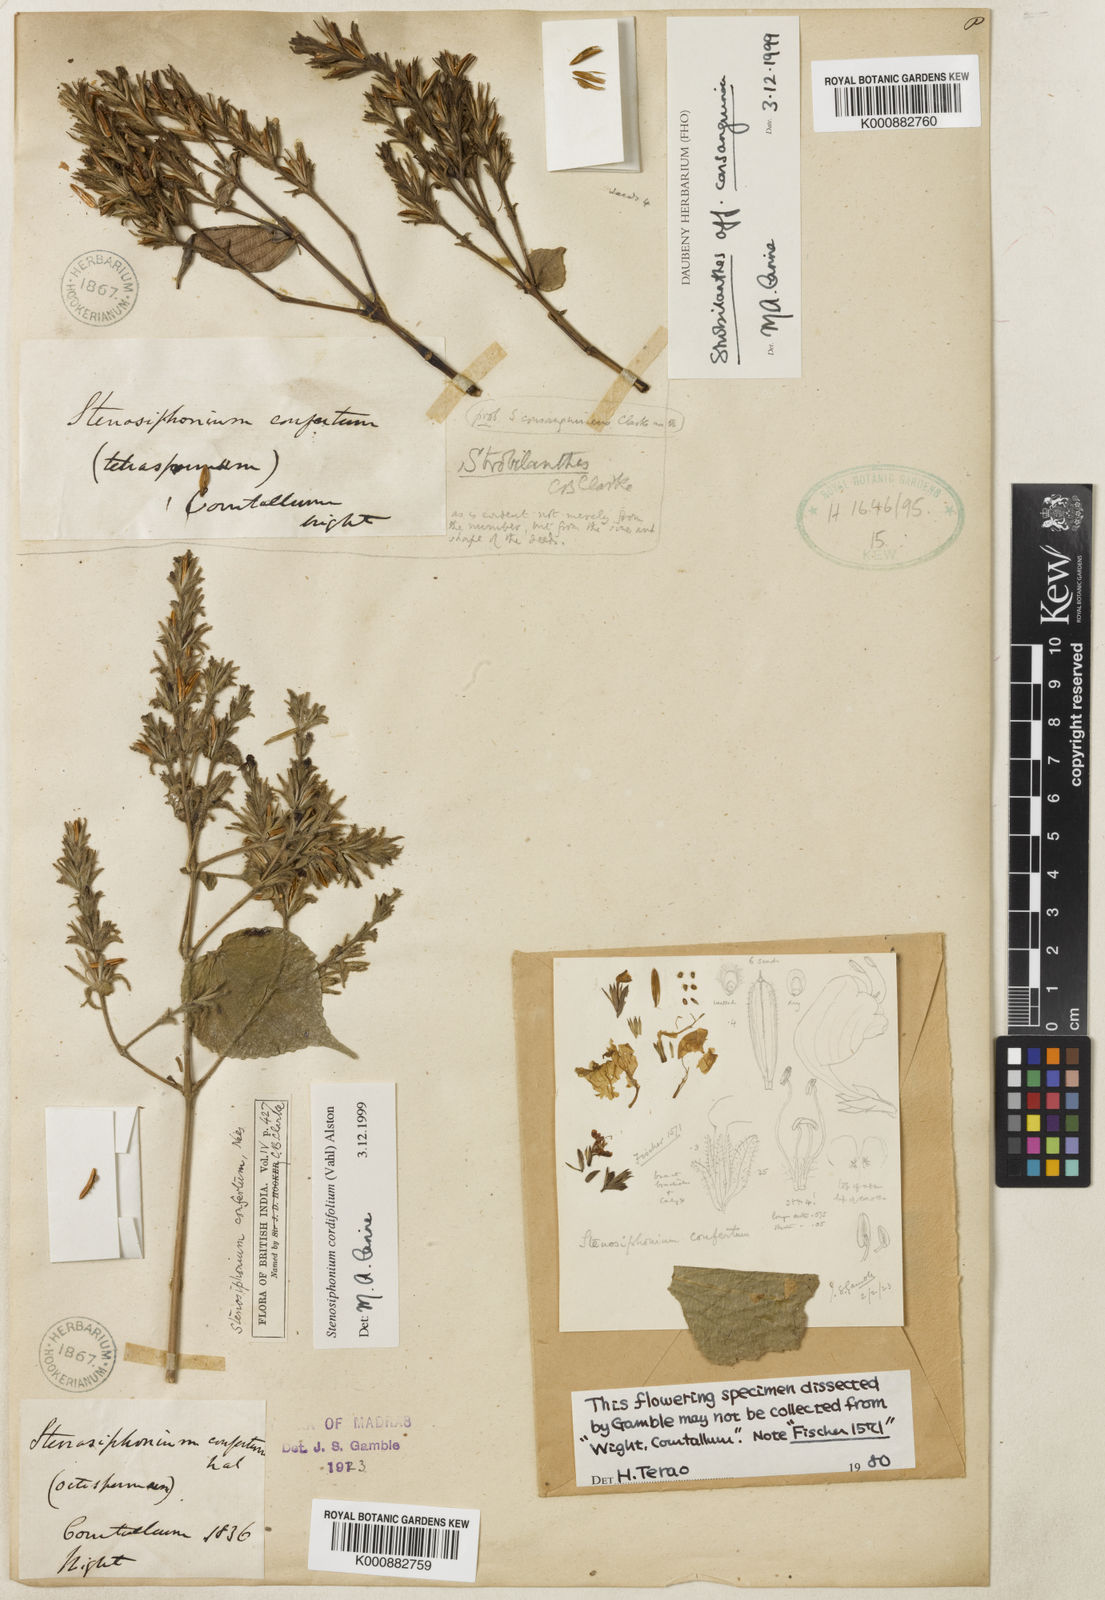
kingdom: Plantae
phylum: Tracheophyta
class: Magnoliopsida
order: Lamiales
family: Acanthaceae
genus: Strobilanthes
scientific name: Strobilanthes cordifolia
